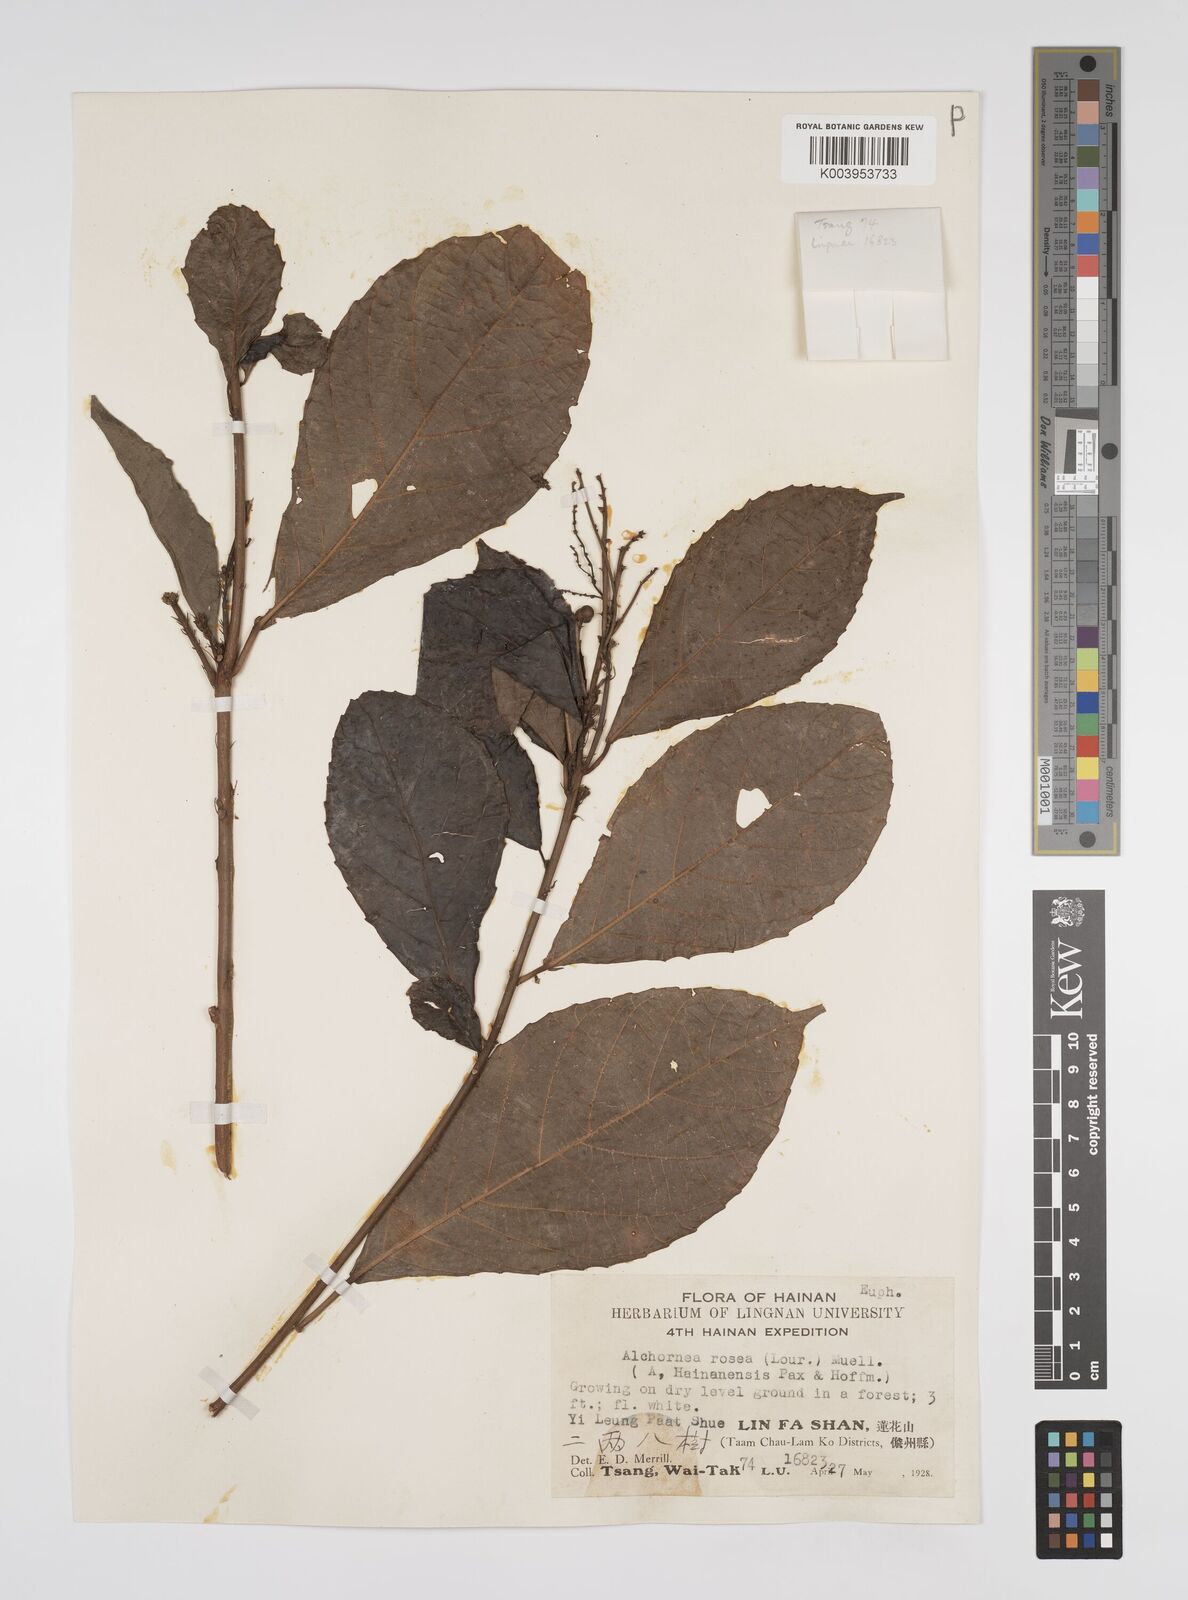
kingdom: Plantae
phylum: Tracheophyta
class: Magnoliopsida
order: Malpighiales
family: Euphorbiaceae
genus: Alchornea
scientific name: Alchornea rugosa
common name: Alchorntree
